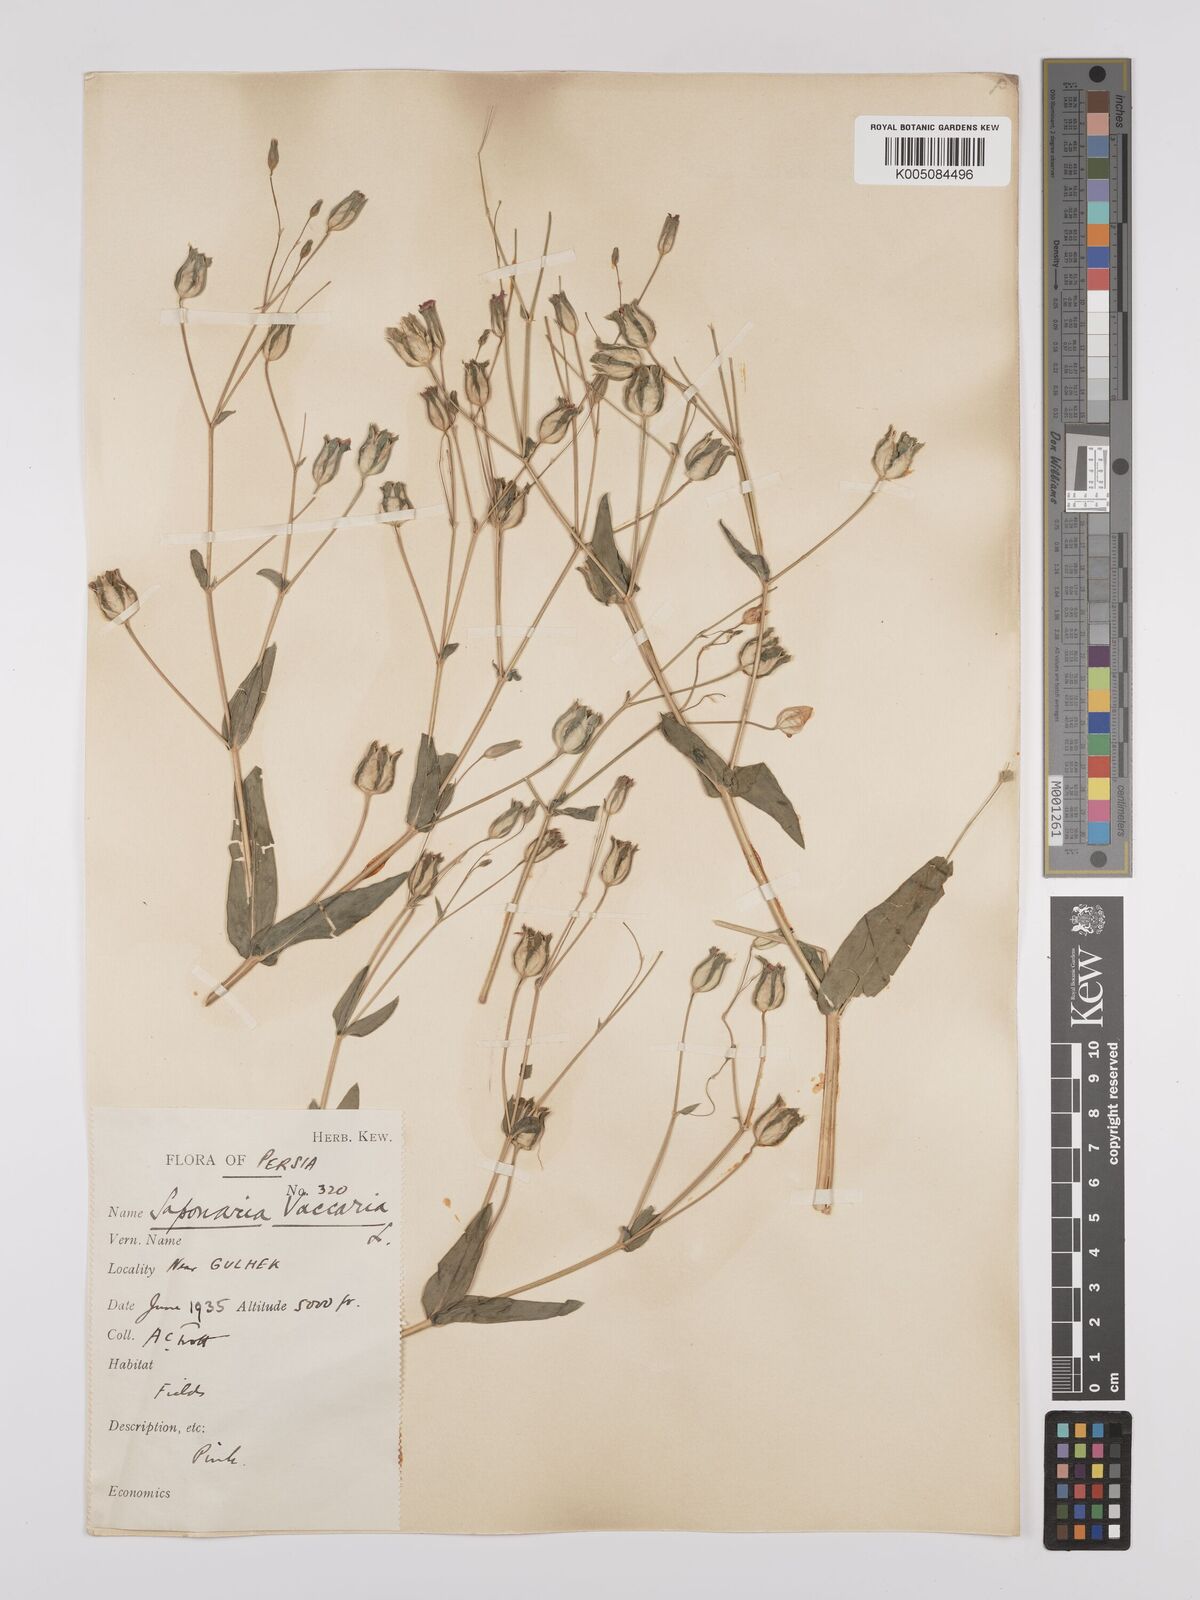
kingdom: Plantae
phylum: Tracheophyta
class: Magnoliopsida
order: Caryophyllales
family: Caryophyllaceae
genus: Gypsophila
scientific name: Gypsophila vaccaria
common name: Cow soapwort
